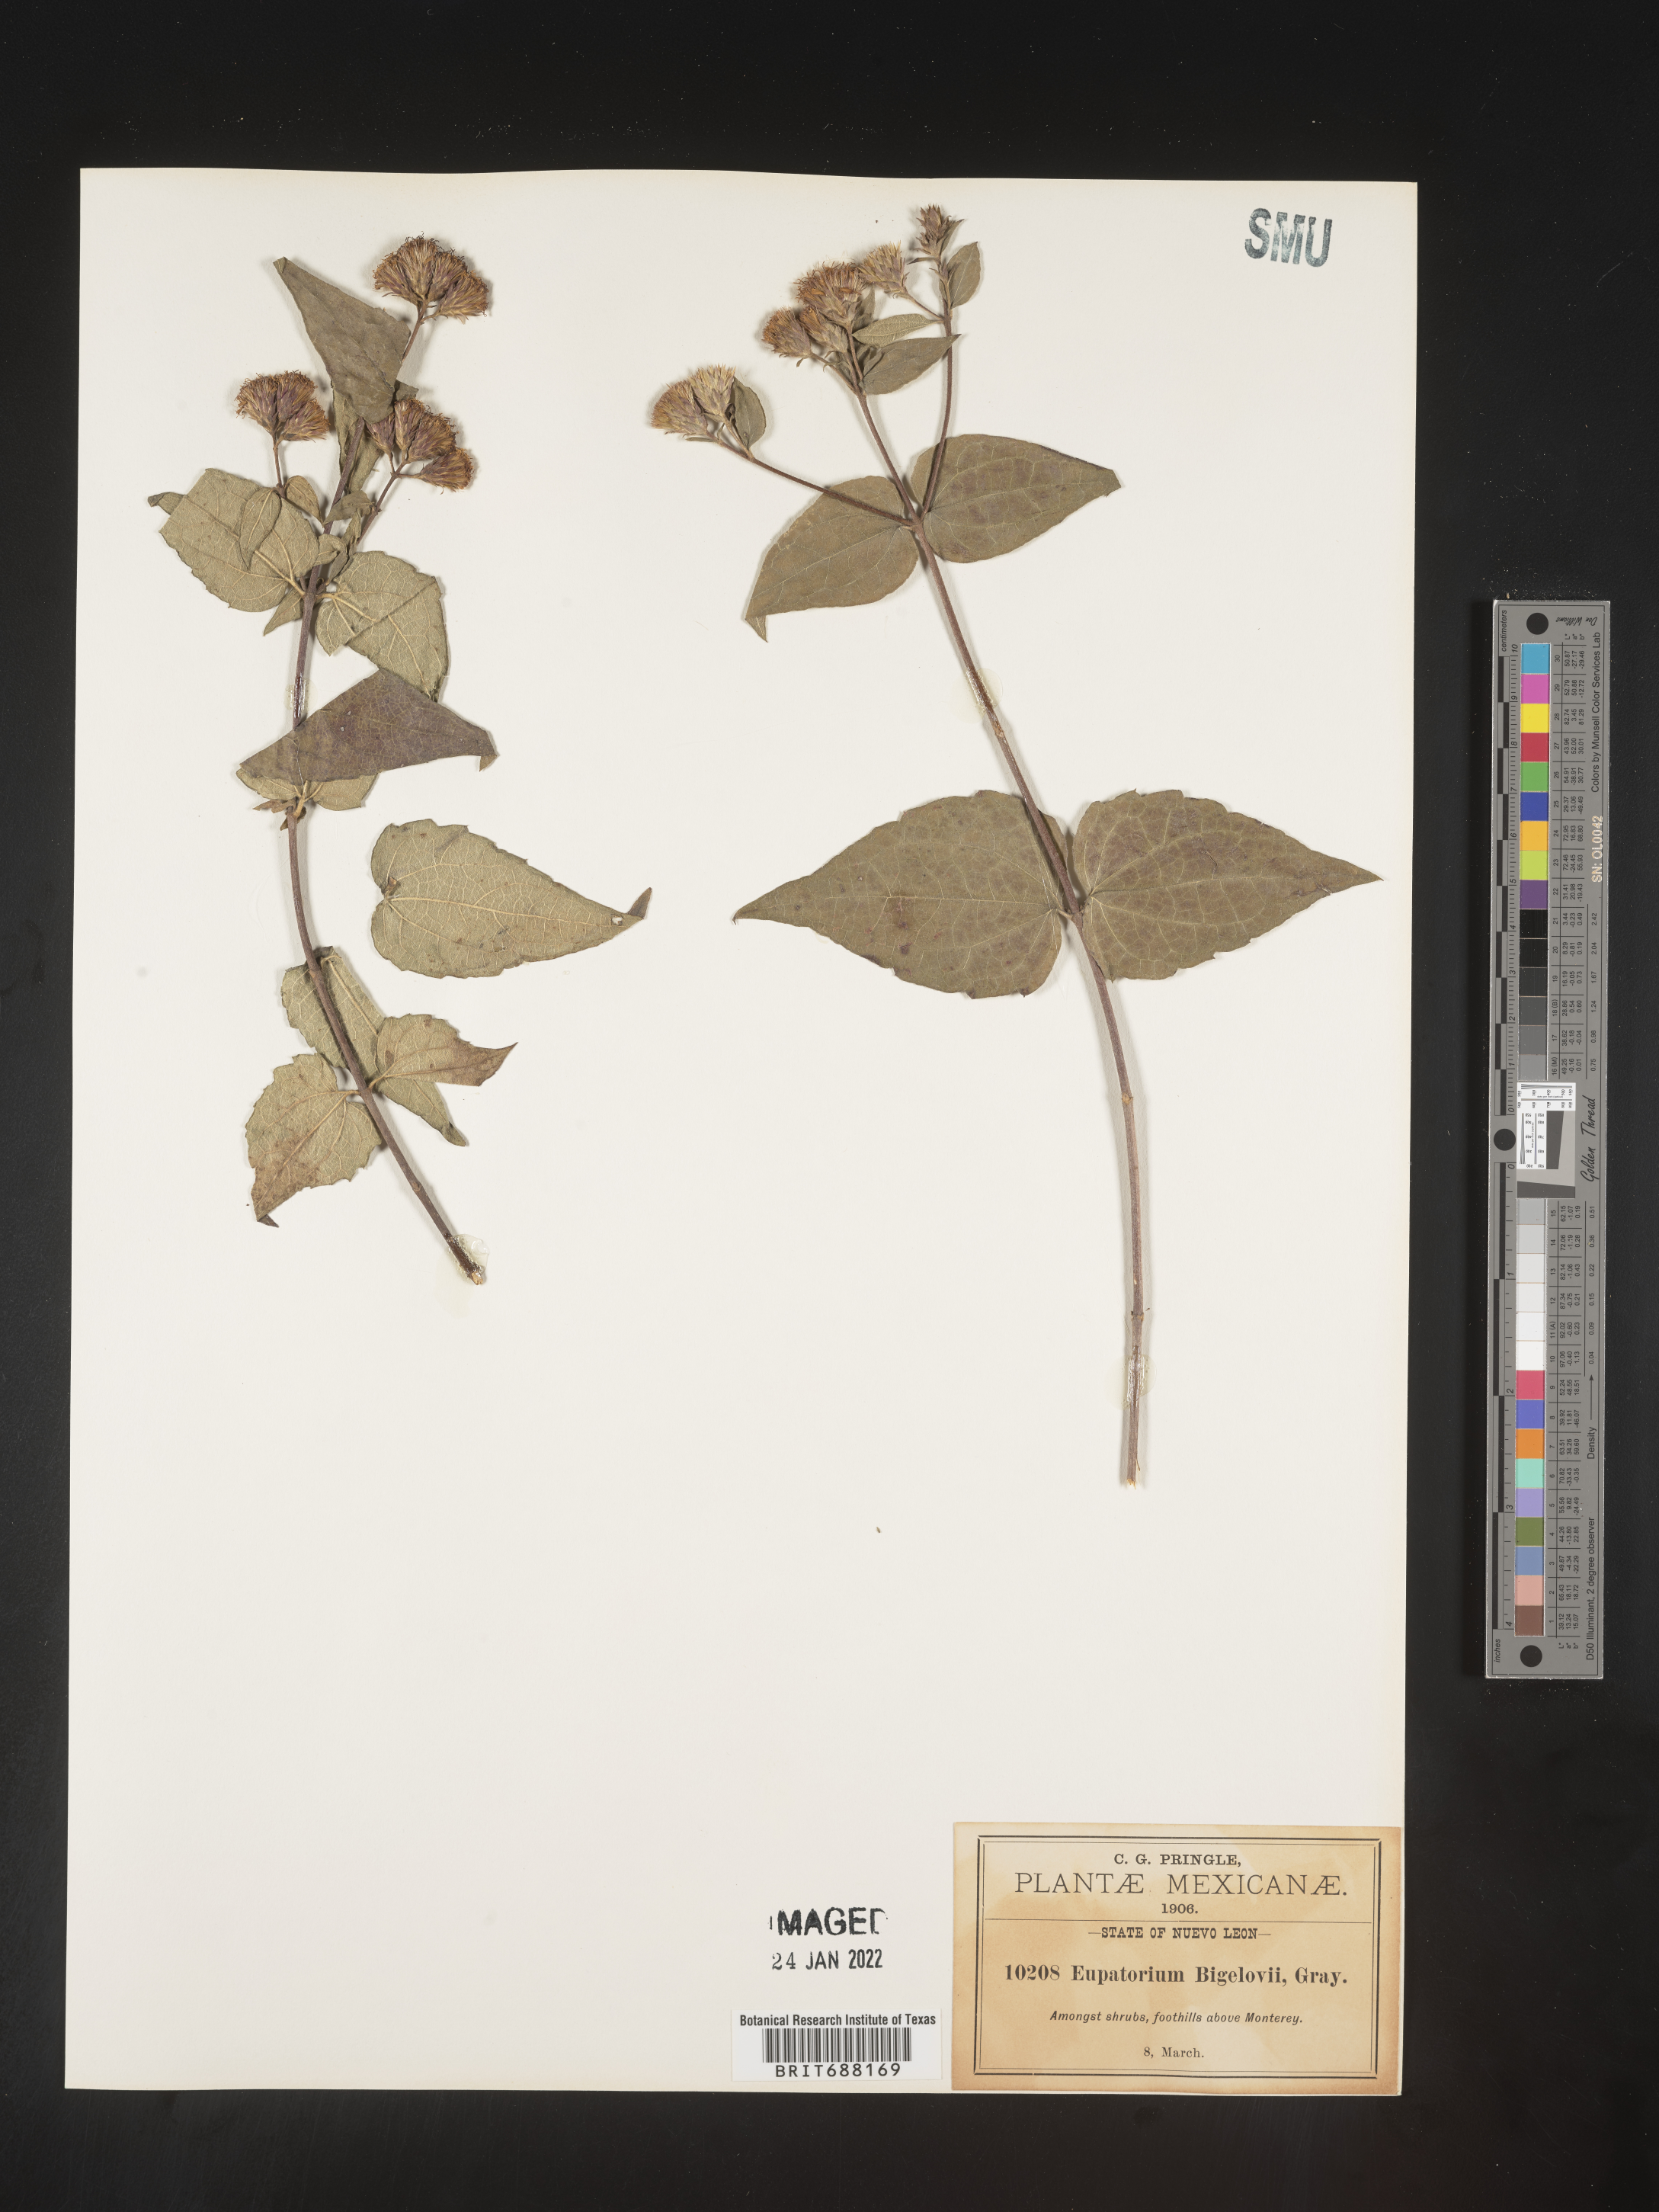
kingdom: Plantae
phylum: Tracheophyta
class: Magnoliopsida
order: Asterales
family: Asteraceae
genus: Chromolaena
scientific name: Chromolaena bigelovii
